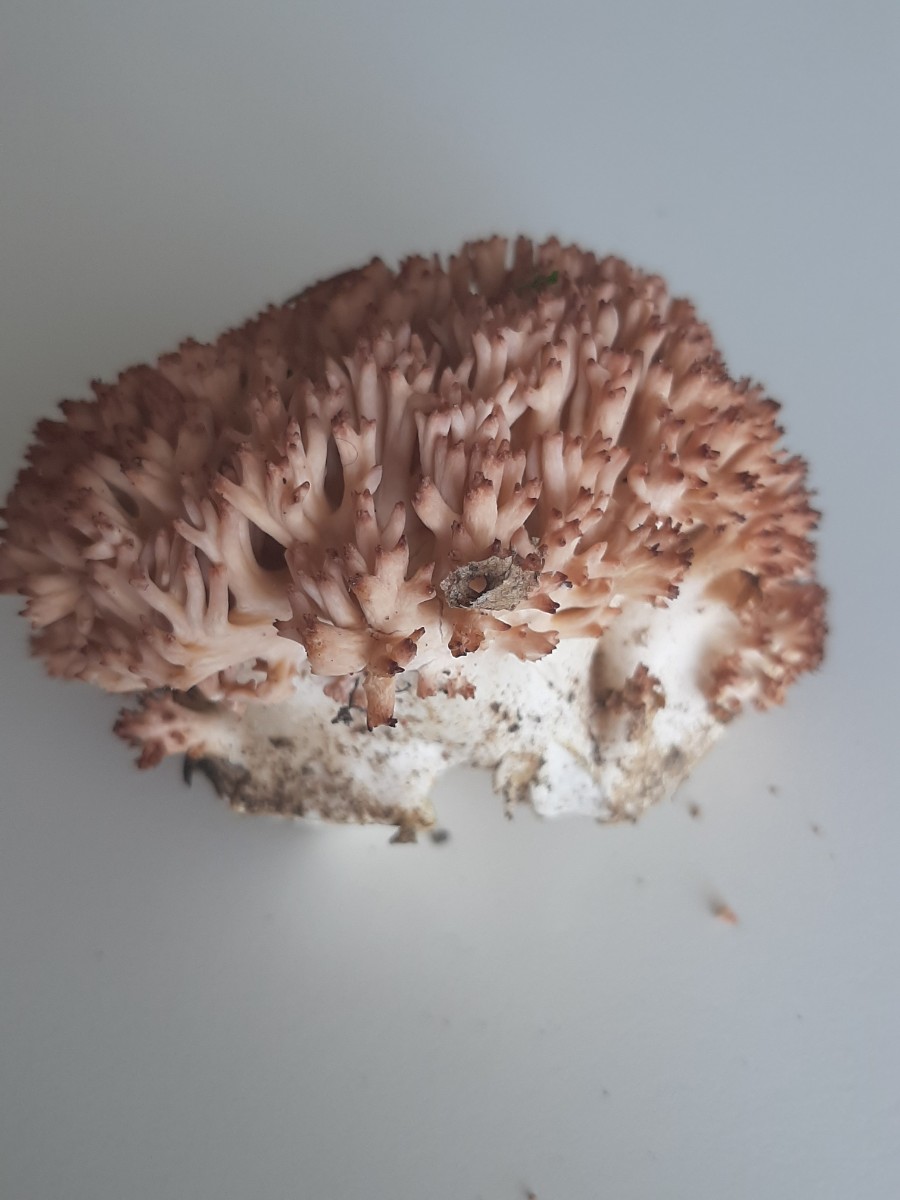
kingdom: Fungi
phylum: Basidiomycota
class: Agaricomycetes
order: Gomphales
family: Gomphaceae
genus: Ramaria
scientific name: Ramaria botrytis
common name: drue-koralsvamp
